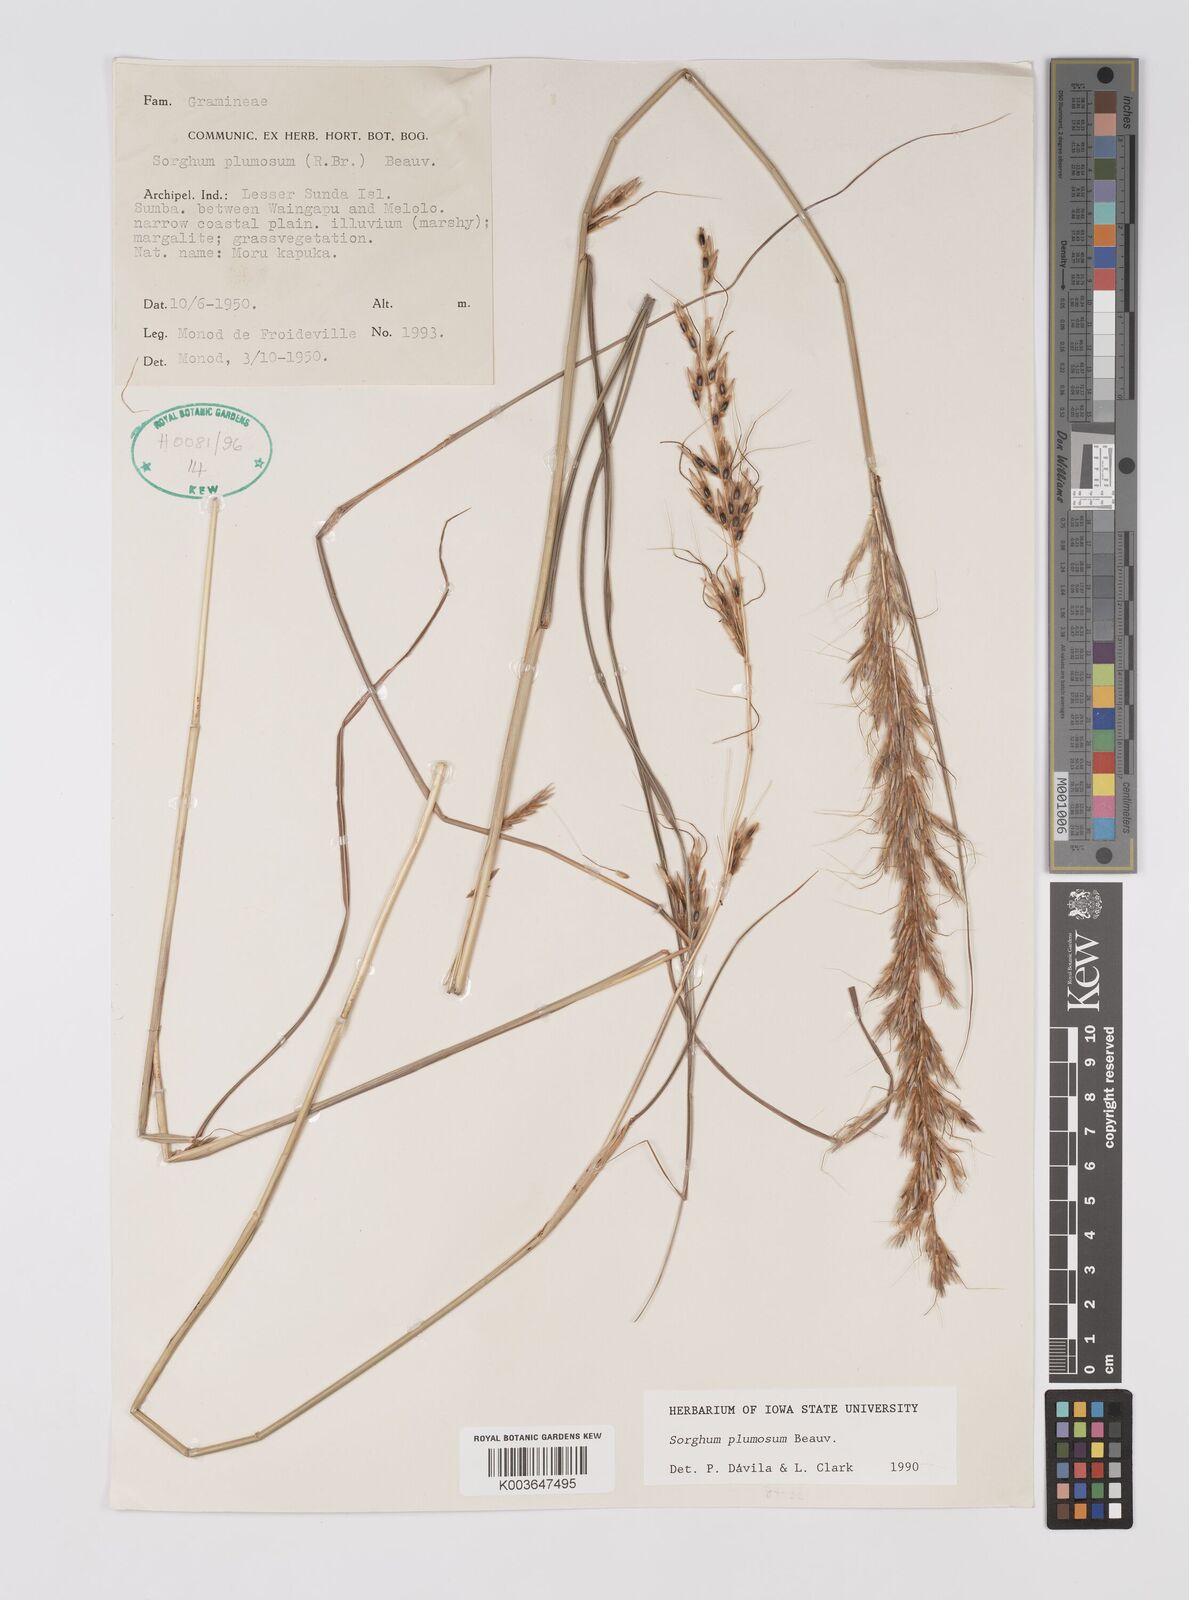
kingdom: Plantae
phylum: Tracheophyta
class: Liliopsida
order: Poales
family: Poaceae
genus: Sarga
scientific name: Sarga plumosa
